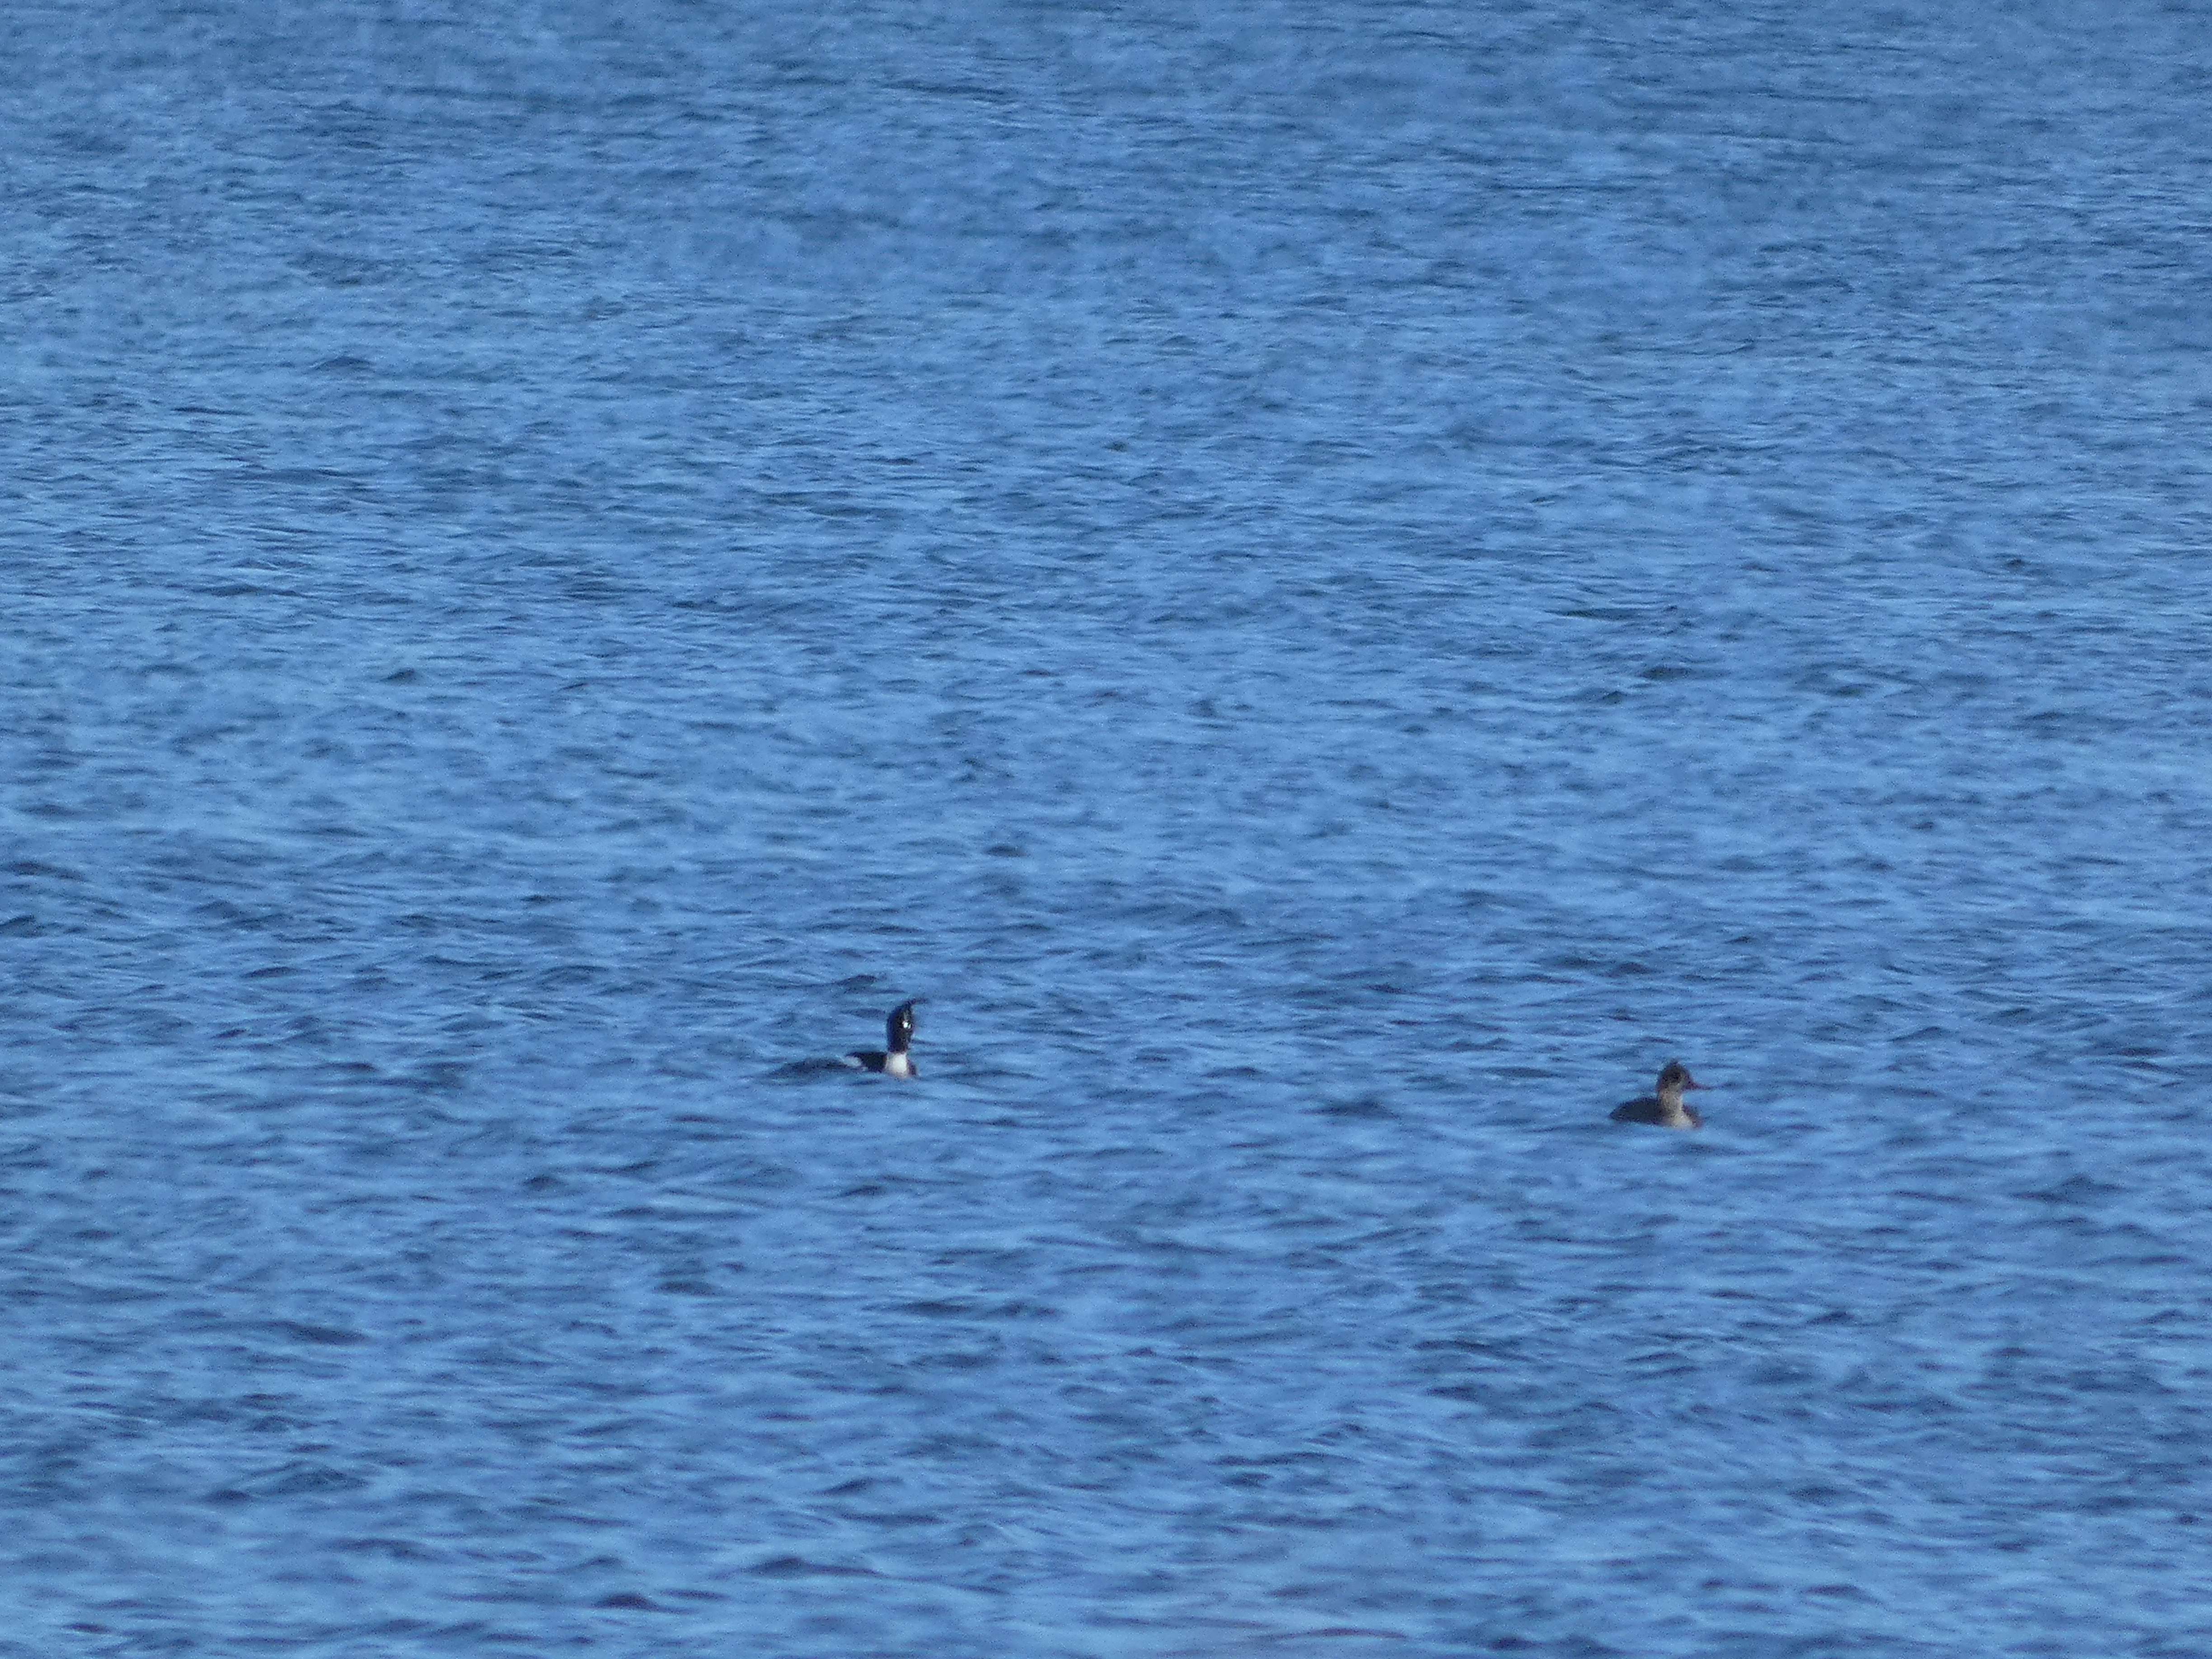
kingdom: Animalia
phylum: Chordata
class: Aves
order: Anseriformes
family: Anatidae
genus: Mergus
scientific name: Mergus serrator
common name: Toppet skallesluger
